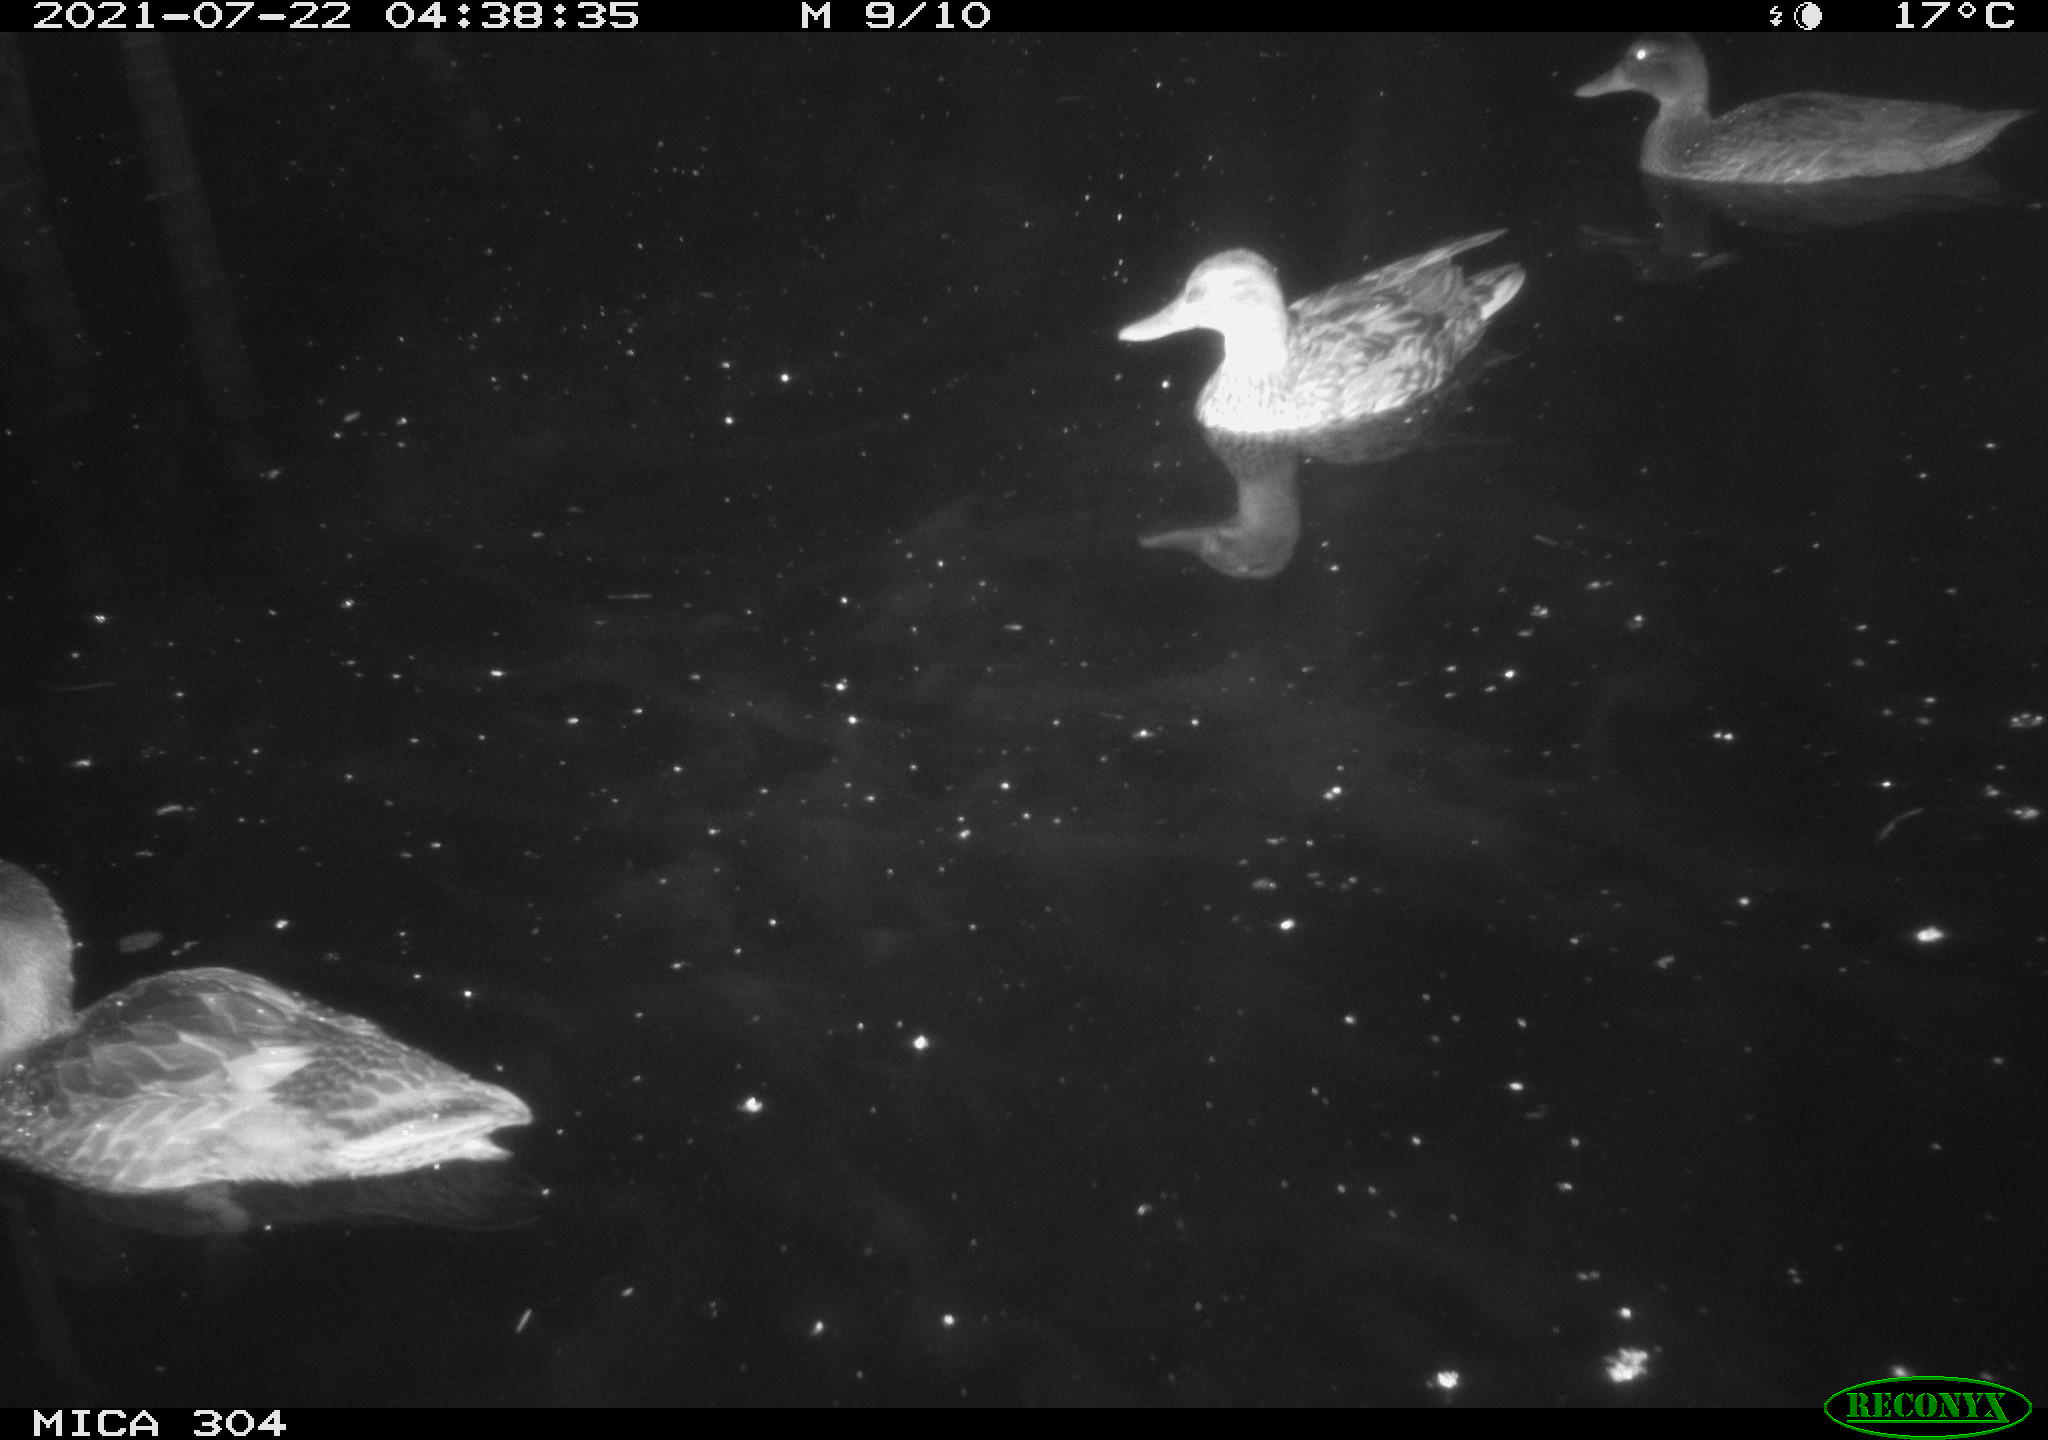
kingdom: Animalia
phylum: Chordata
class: Aves
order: Anseriformes
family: Anatidae
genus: Mareca
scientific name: Mareca strepera
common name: Gadwall
